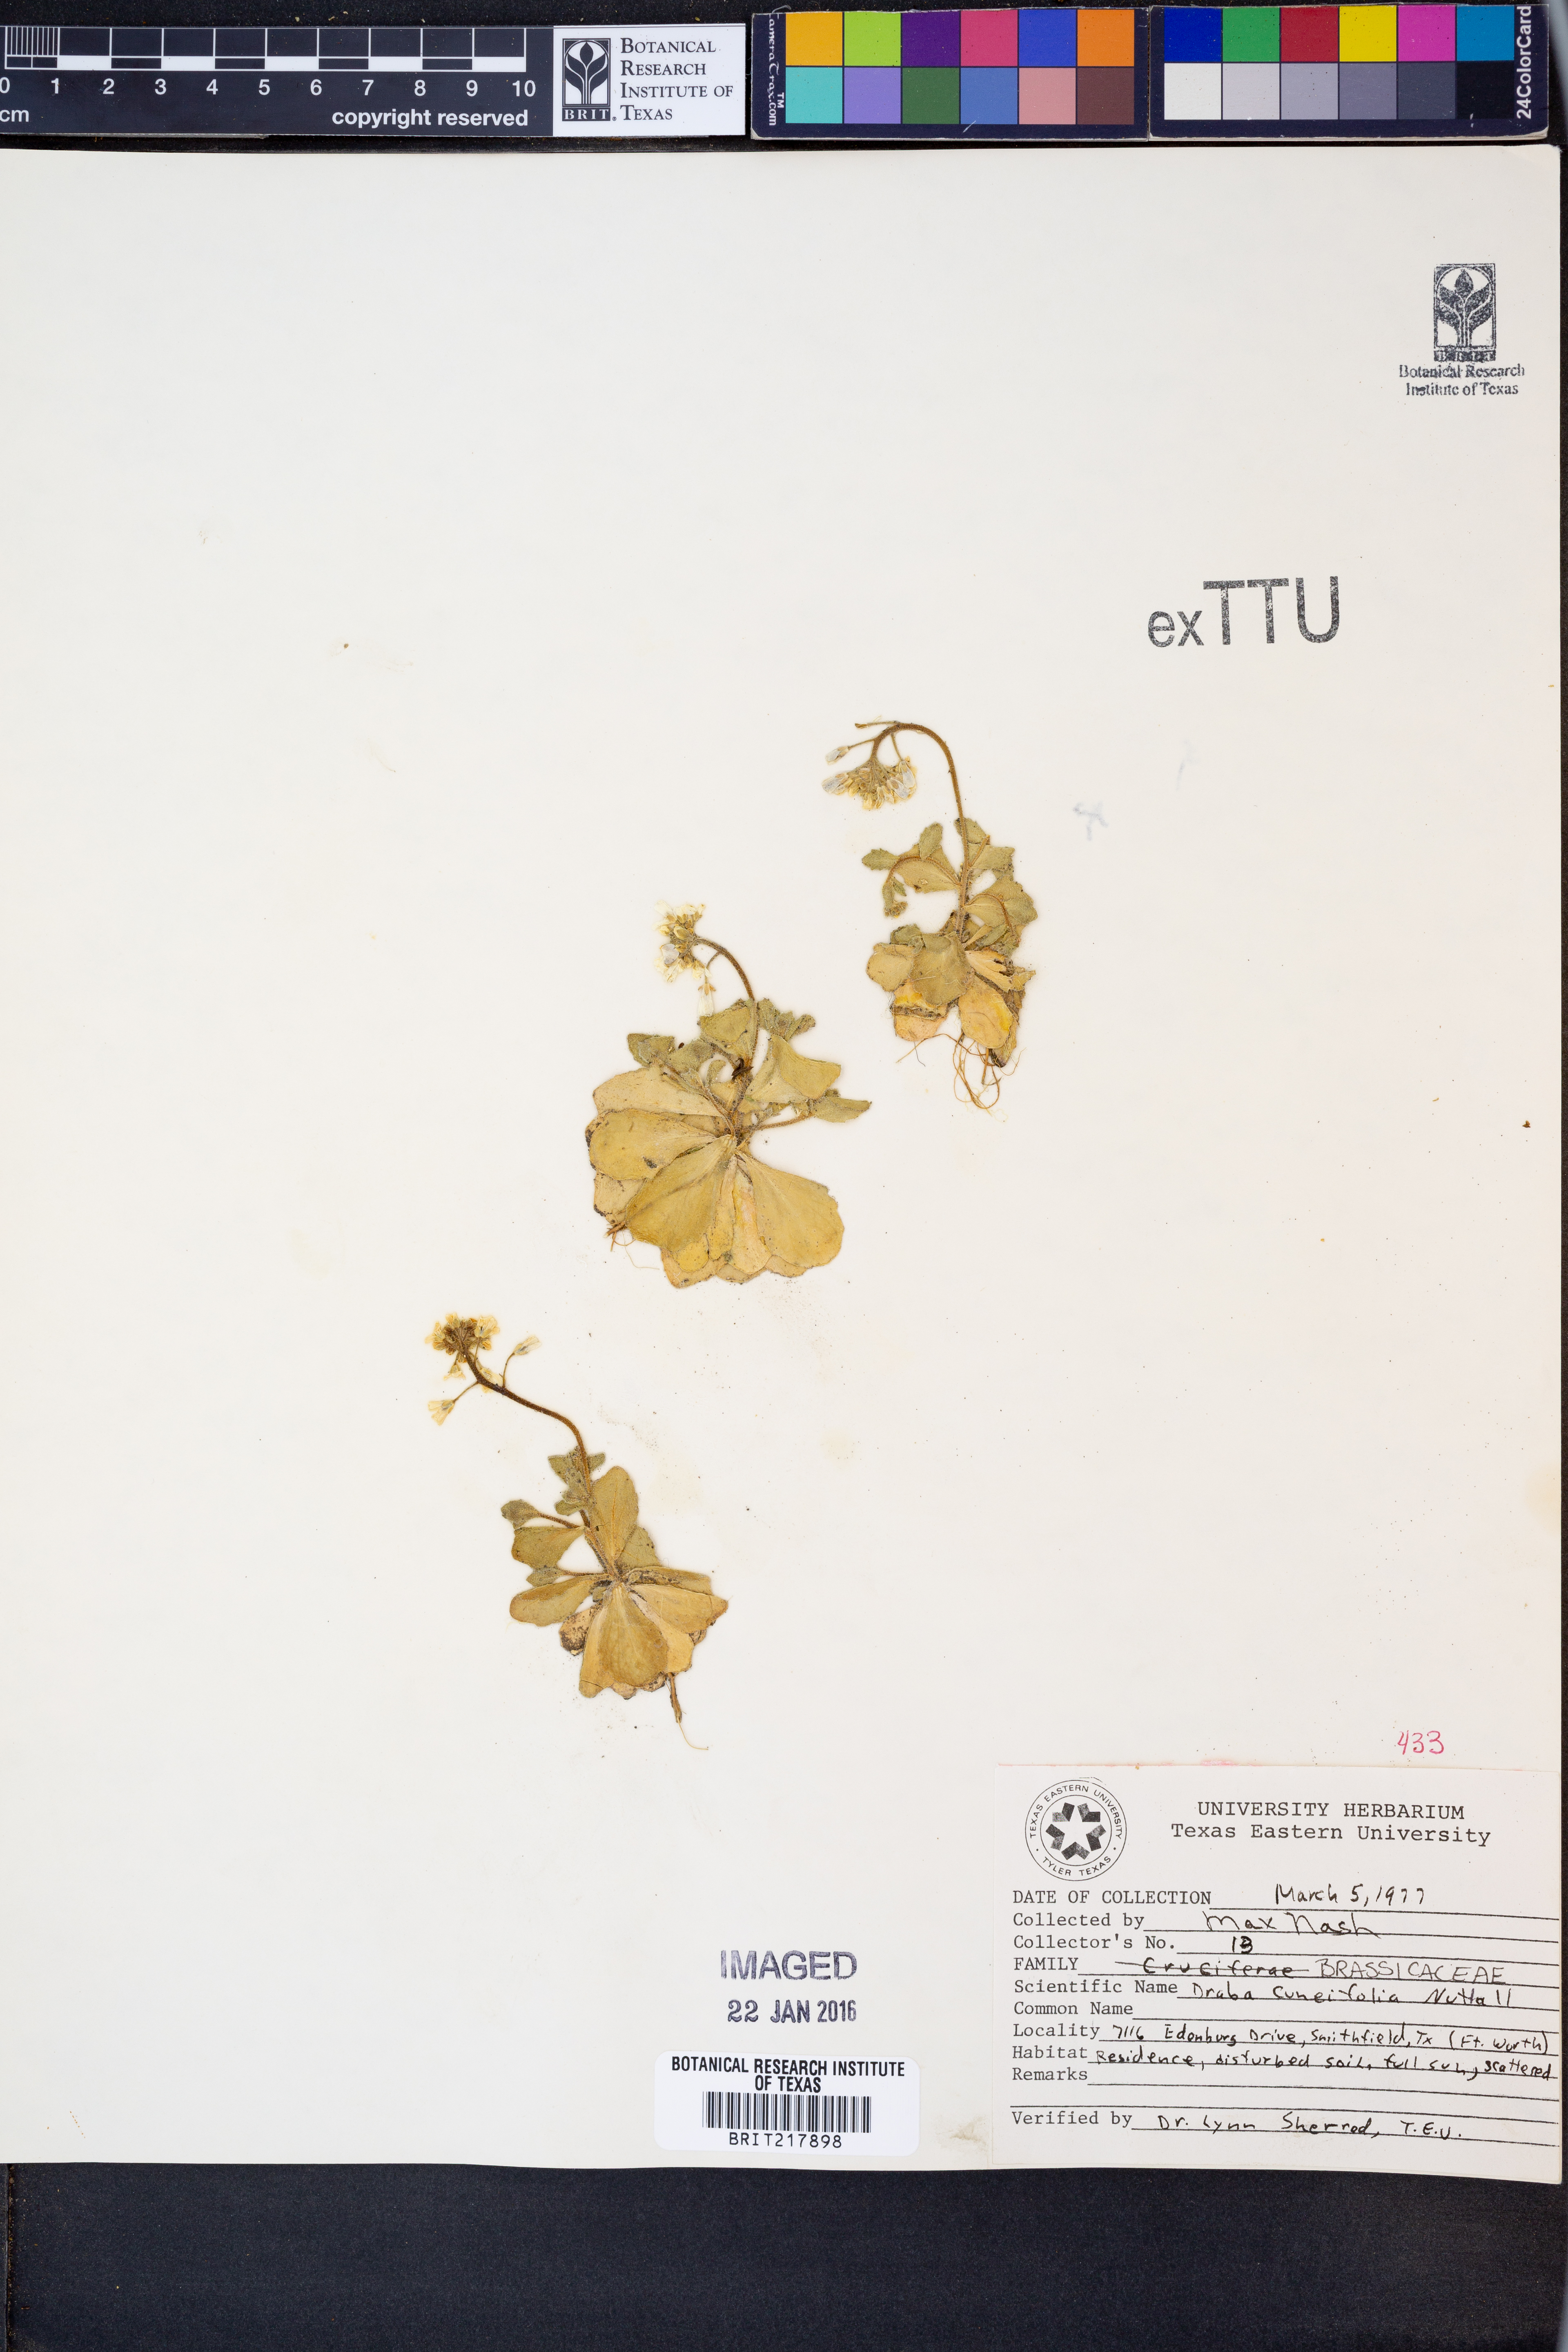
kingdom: Plantae
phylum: Tracheophyta
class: Magnoliopsida
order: Brassicales
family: Brassicaceae
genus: Tomostima
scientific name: Tomostima cuneifolia
